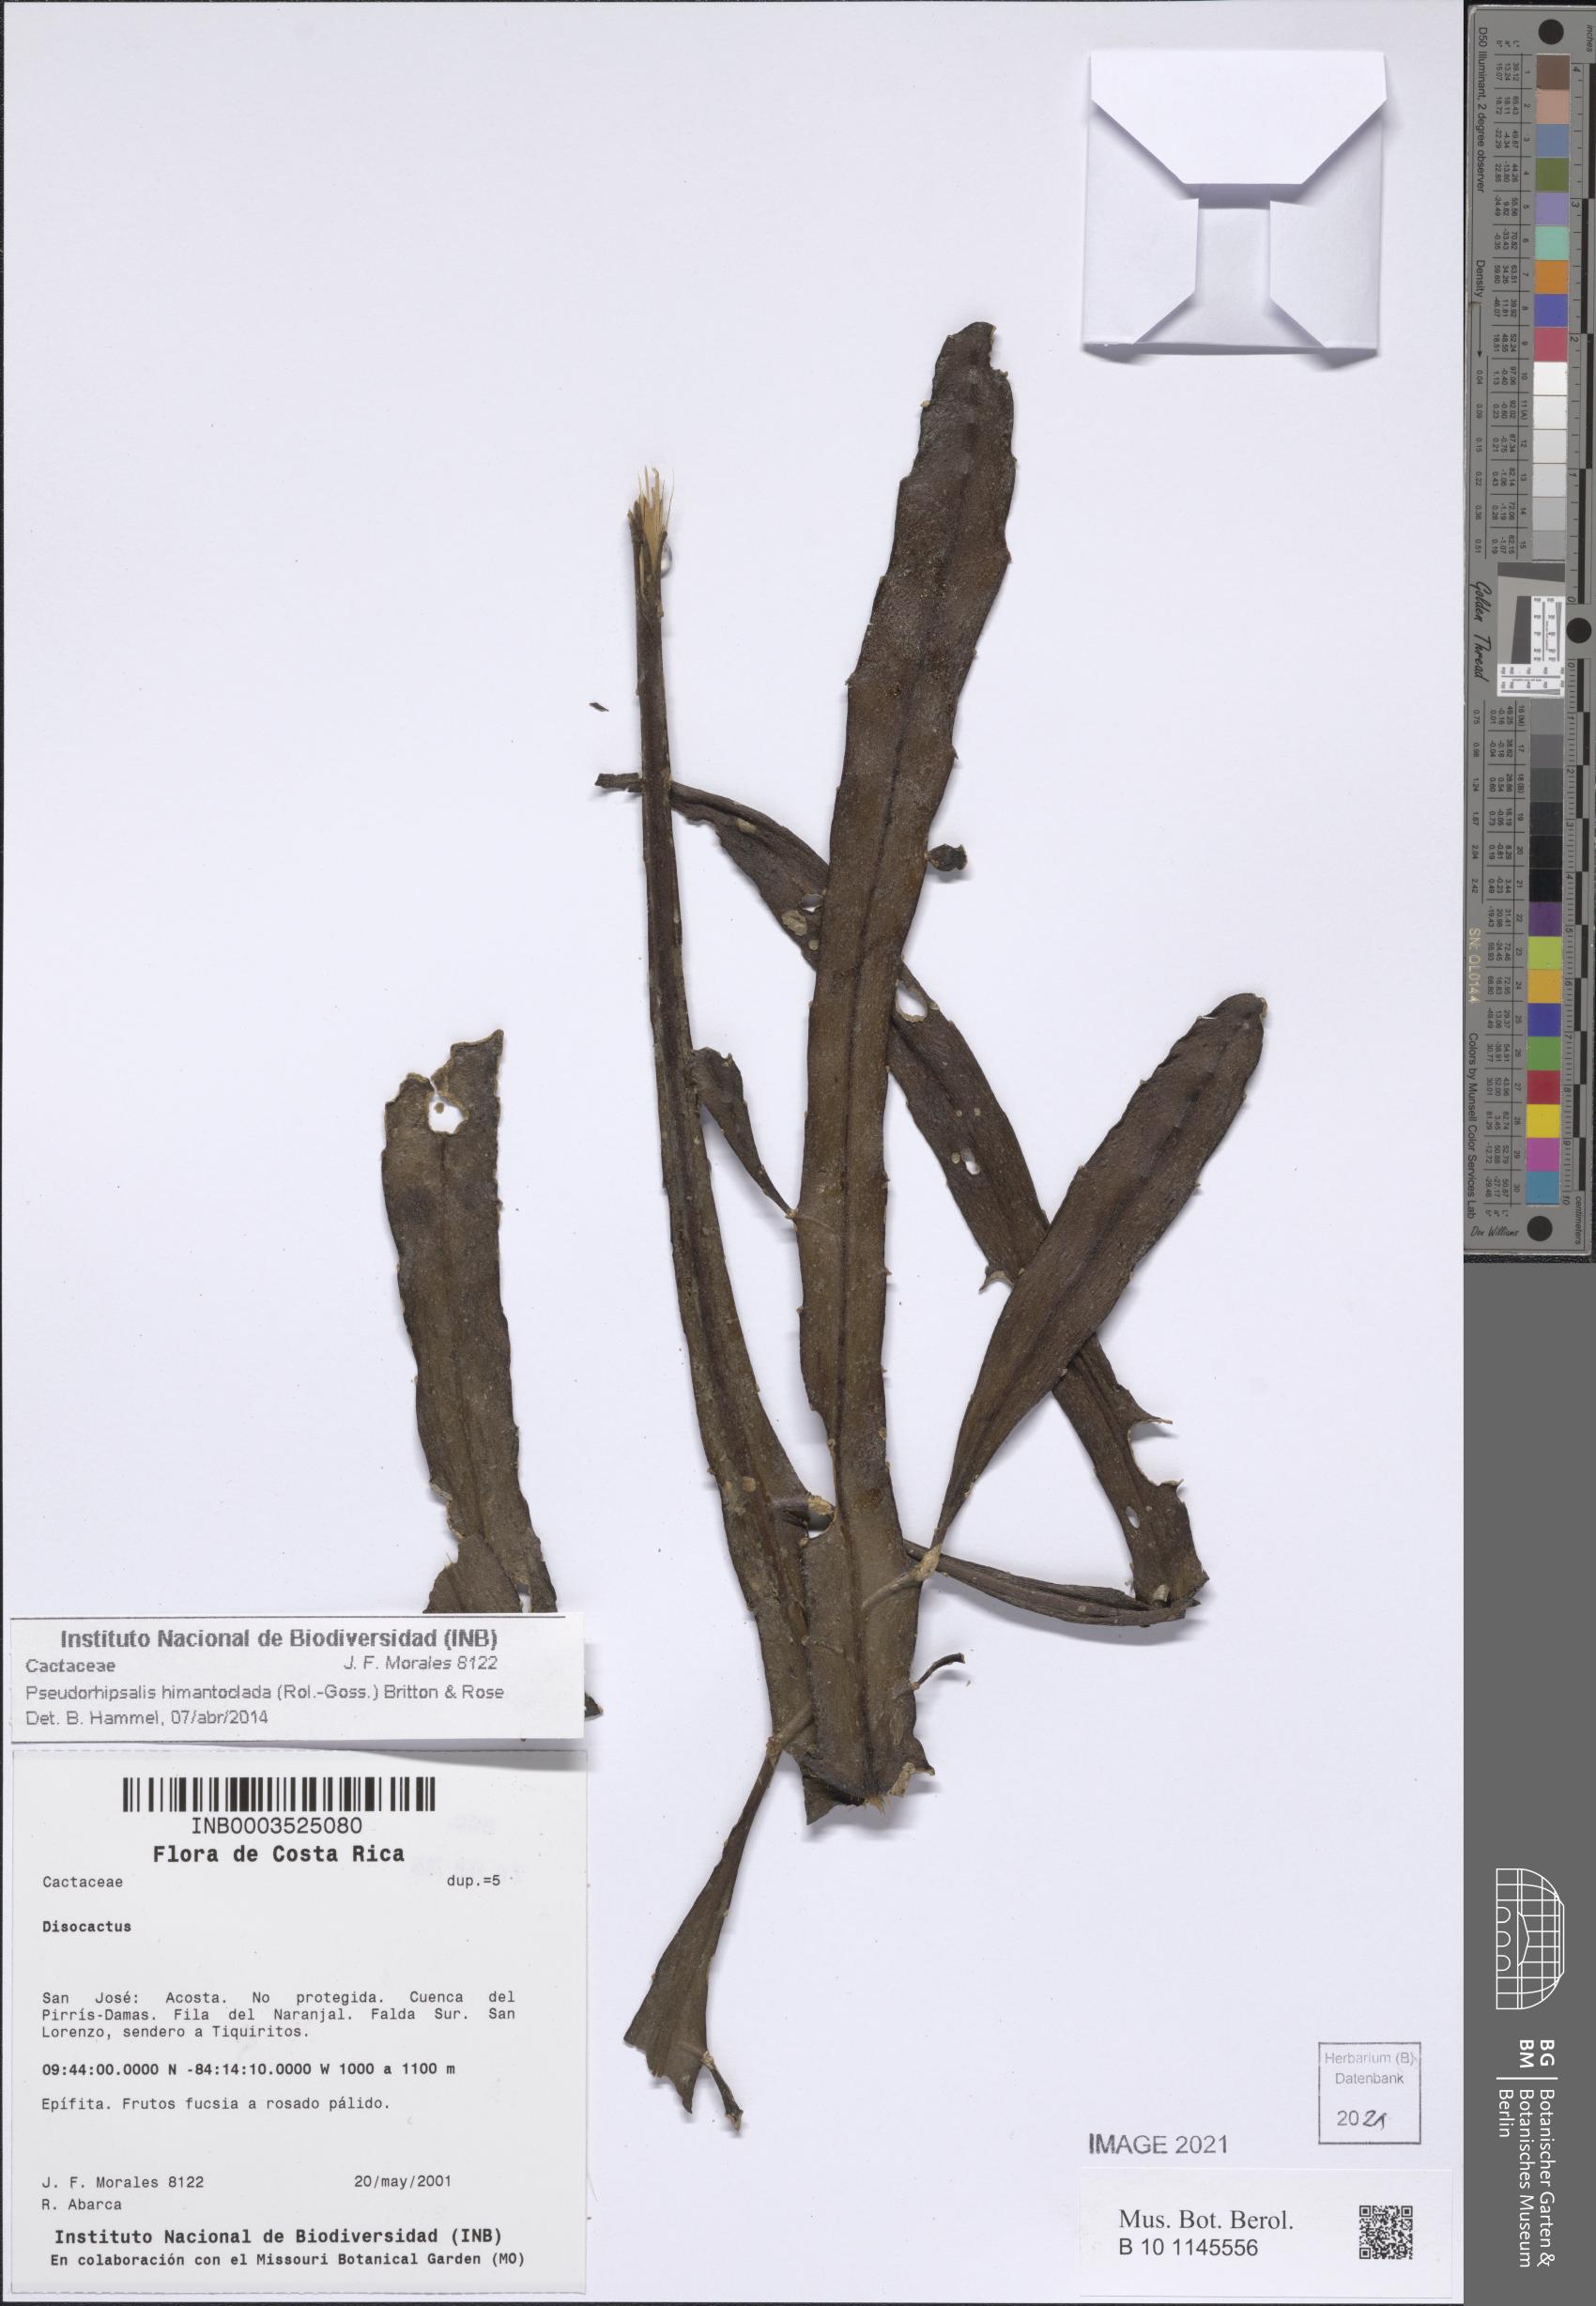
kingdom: Plantae
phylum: Tracheophyta
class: Magnoliopsida
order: Caryophyllales
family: Cactaceae
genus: Pseudorhipsalis
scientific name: Pseudorhipsalis himantoclada
